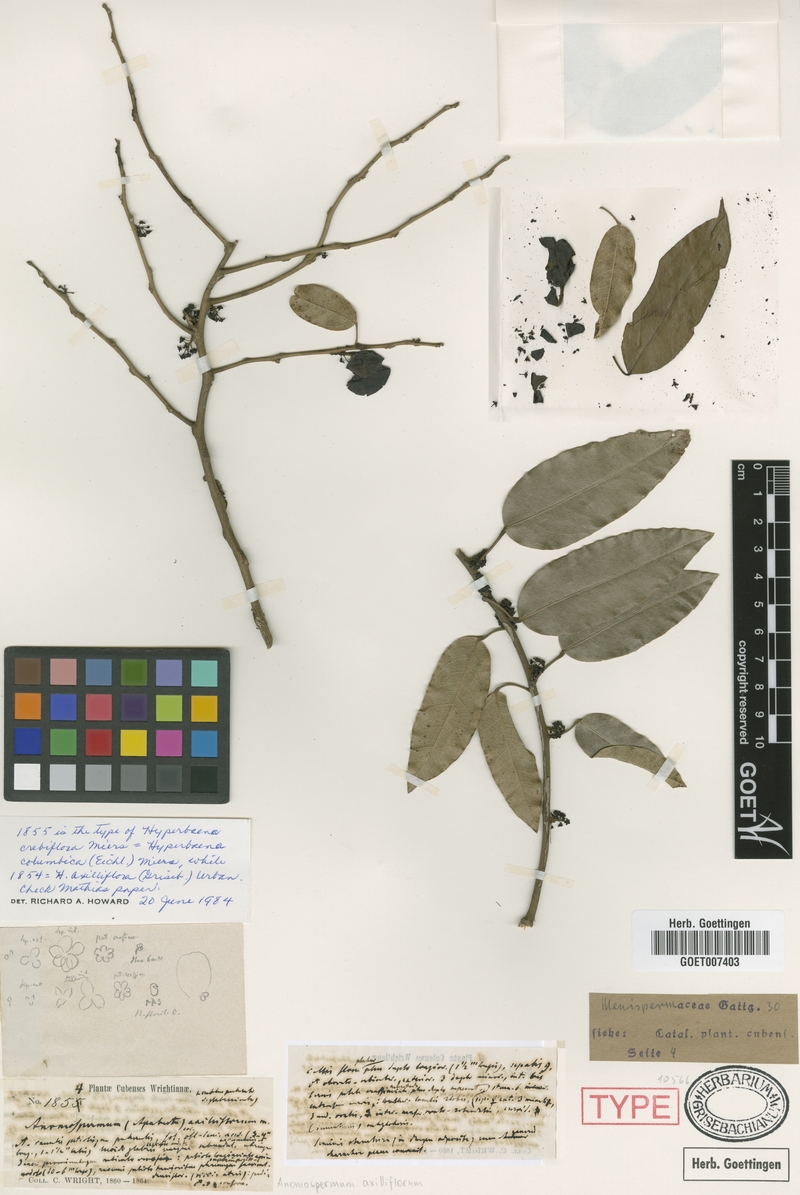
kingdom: Plantae
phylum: Tracheophyta
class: Magnoliopsida
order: Ranunculales
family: Menispermaceae
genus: Hyperbaena
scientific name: Hyperbaena axilliflora
